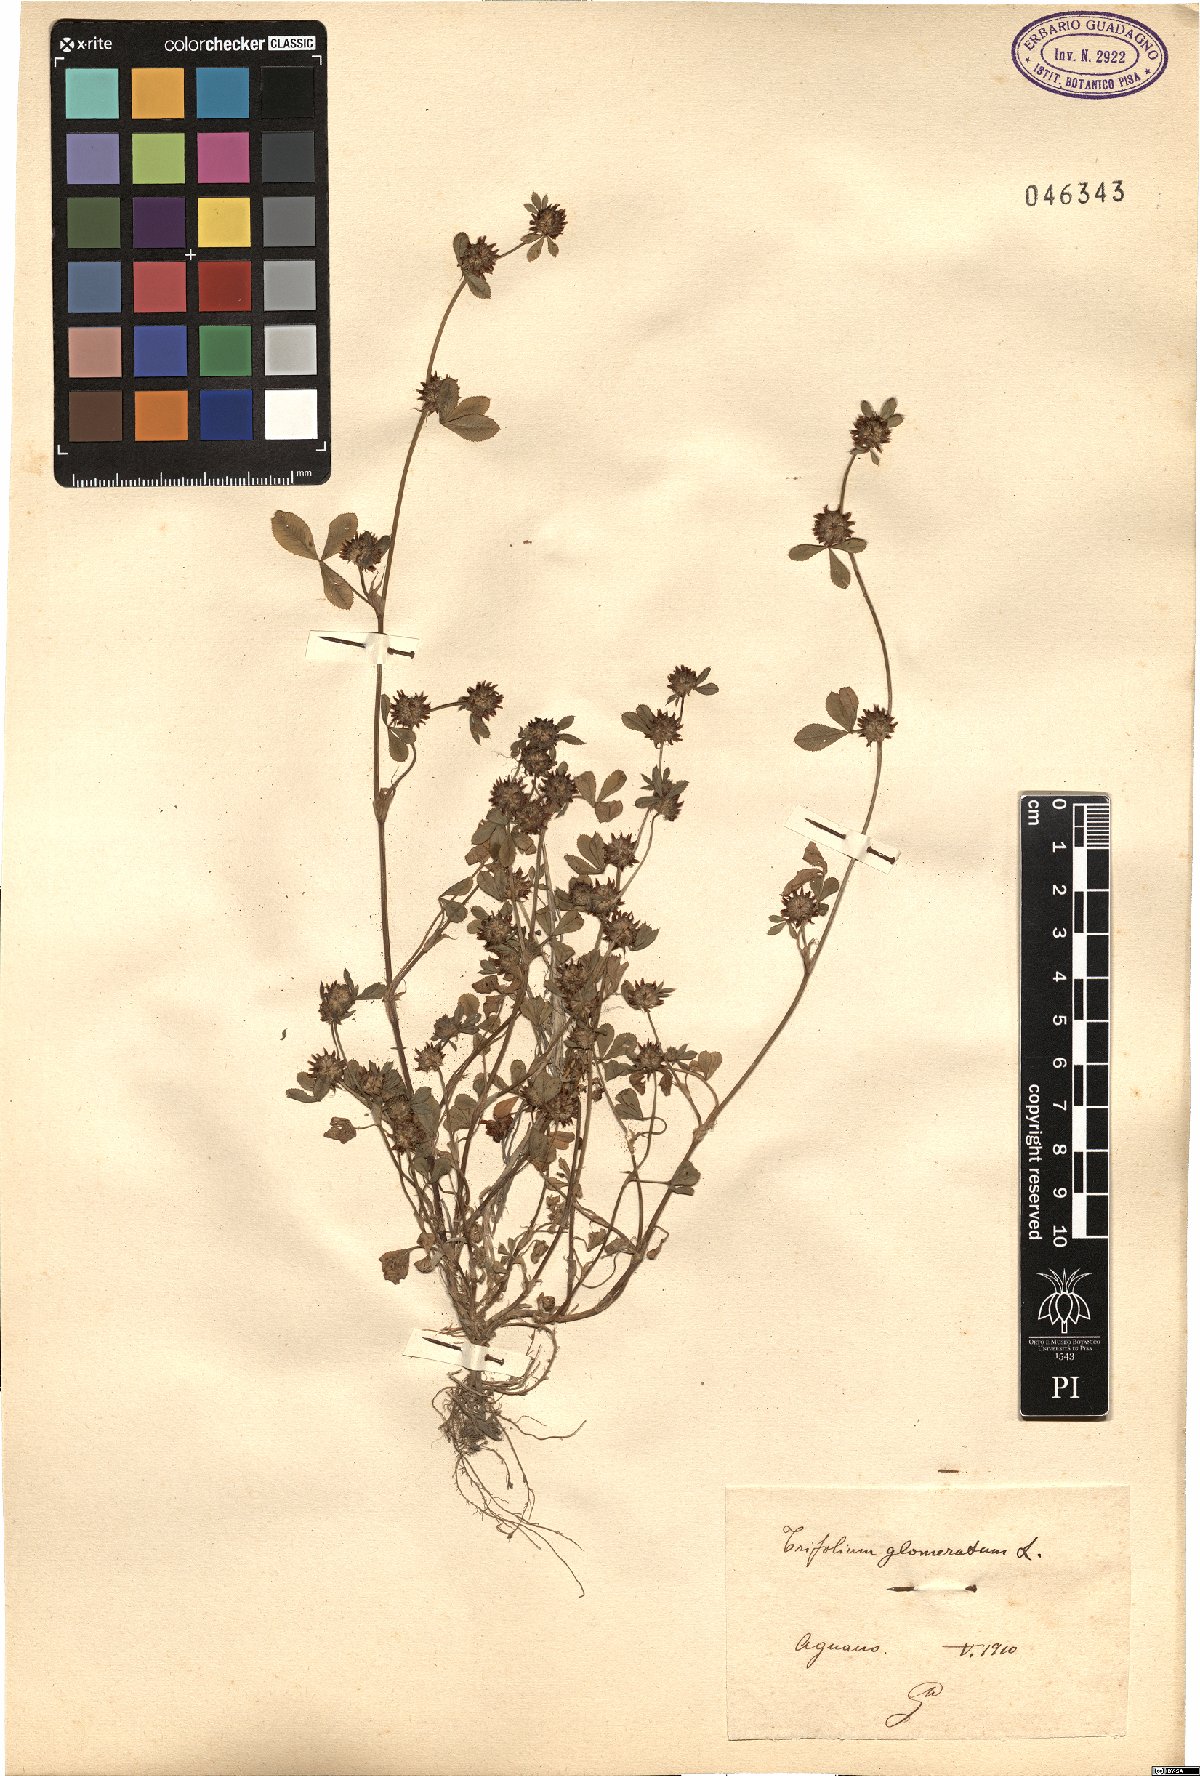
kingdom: Plantae
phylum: Tracheophyta
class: Magnoliopsida
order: Fabales
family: Fabaceae
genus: Trifolium
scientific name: Trifolium glomeratum
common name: Clustered clover
